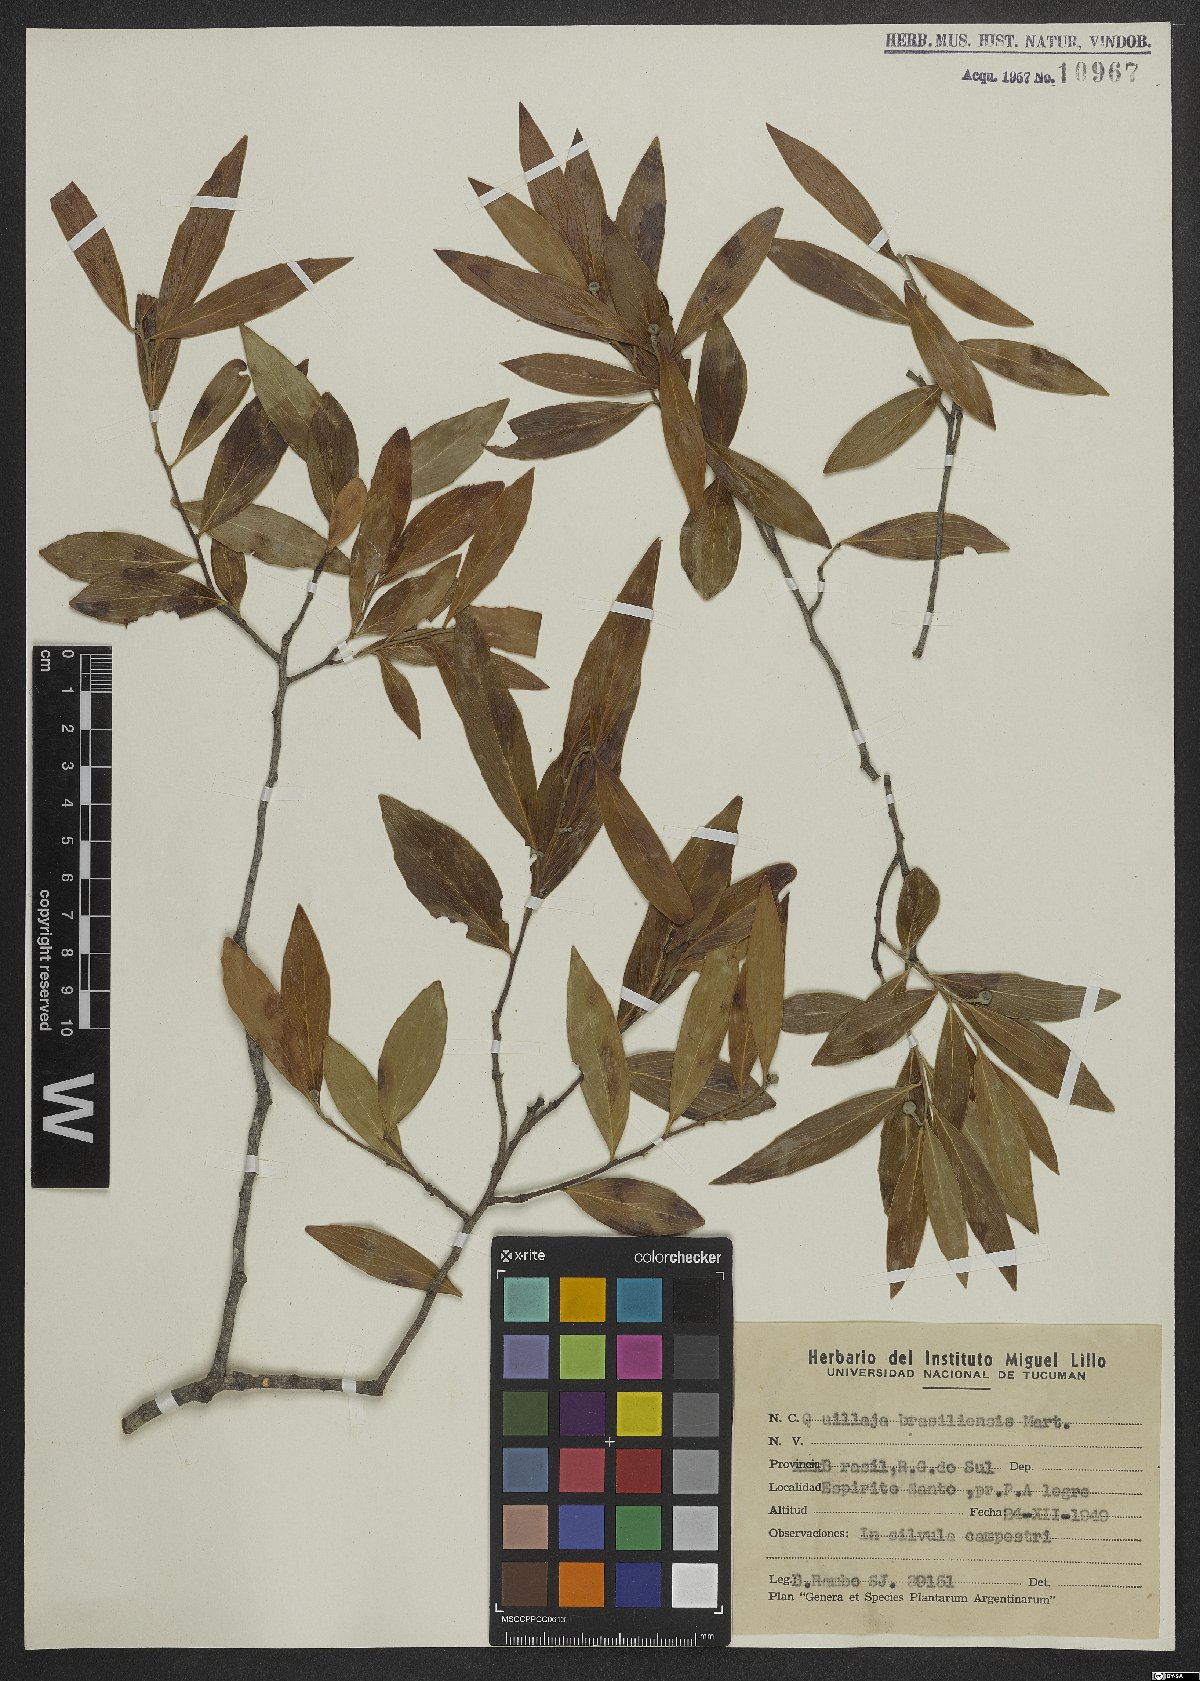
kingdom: Plantae
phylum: Tracheophyta
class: Magnoliopsida
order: Fabales
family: Quillajaceae
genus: Quillaja
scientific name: Quillaja brasiliensis
